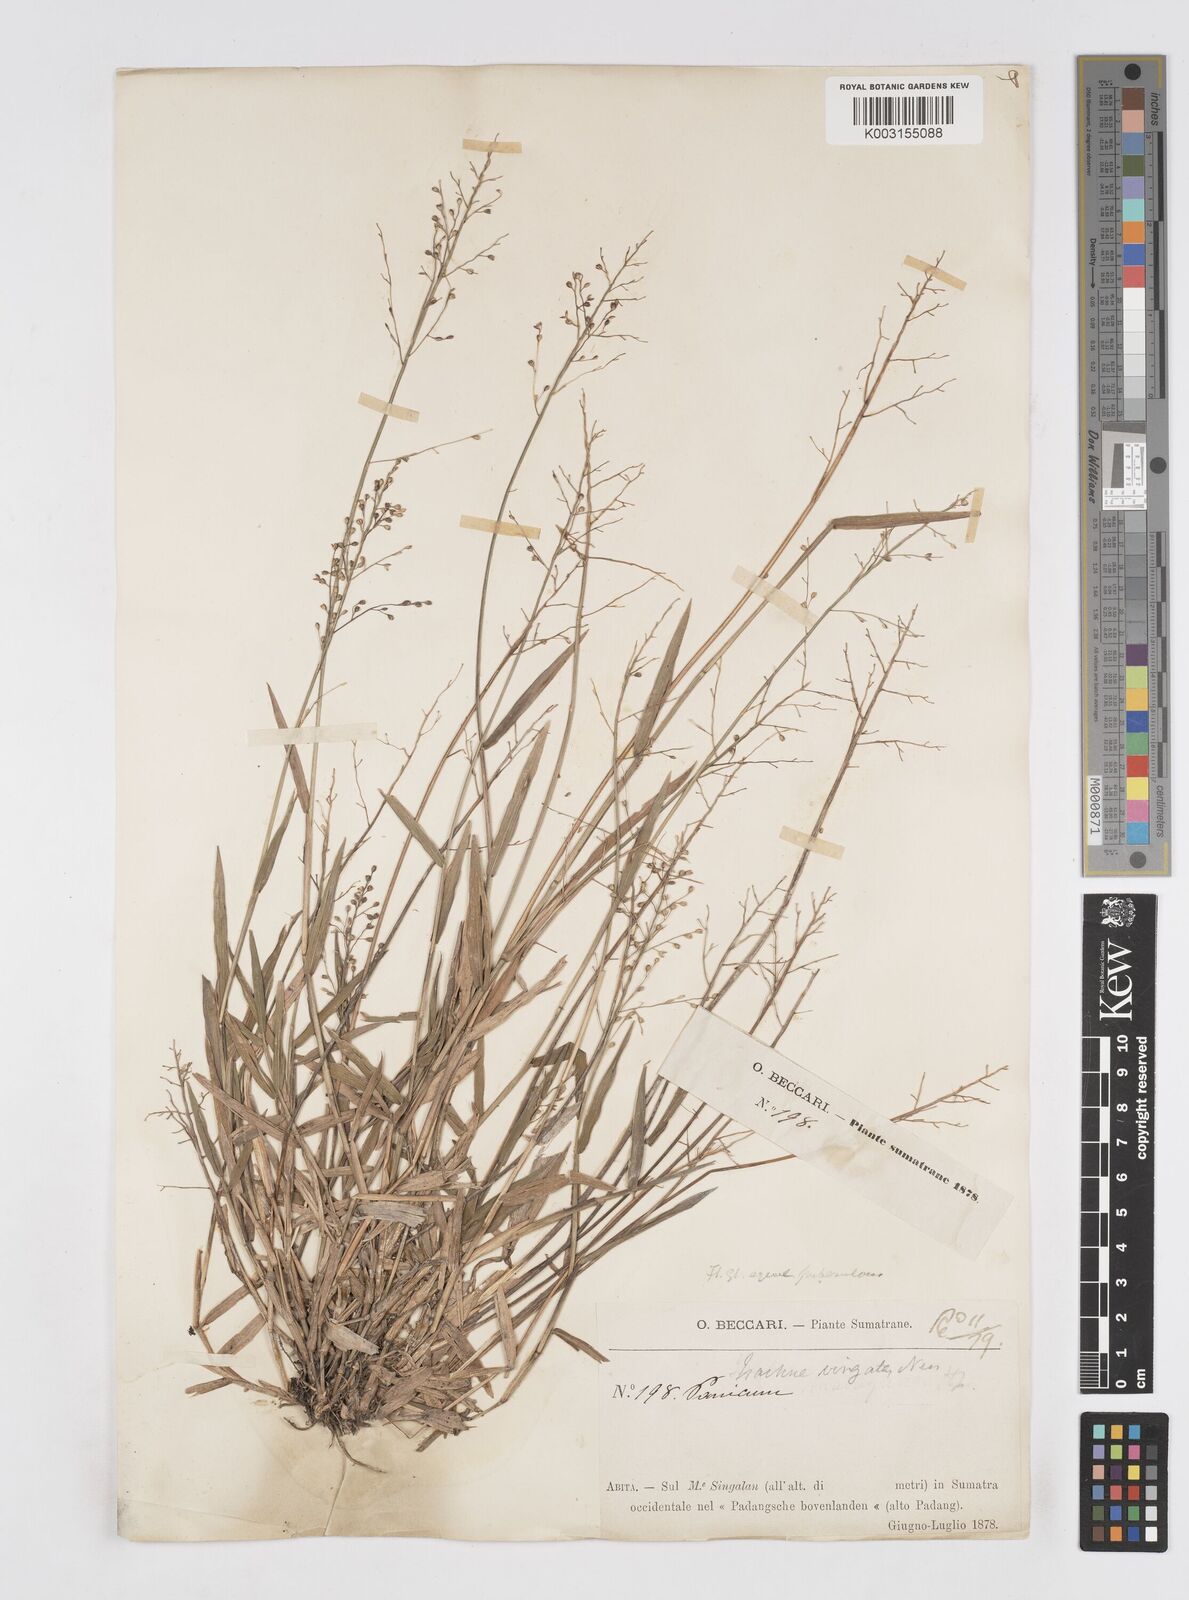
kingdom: Plantae
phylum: Tracheophyta
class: Liliopsida
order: Poales
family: Poaceae
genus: Isachne
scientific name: Isachne globosa
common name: Swamp millet
